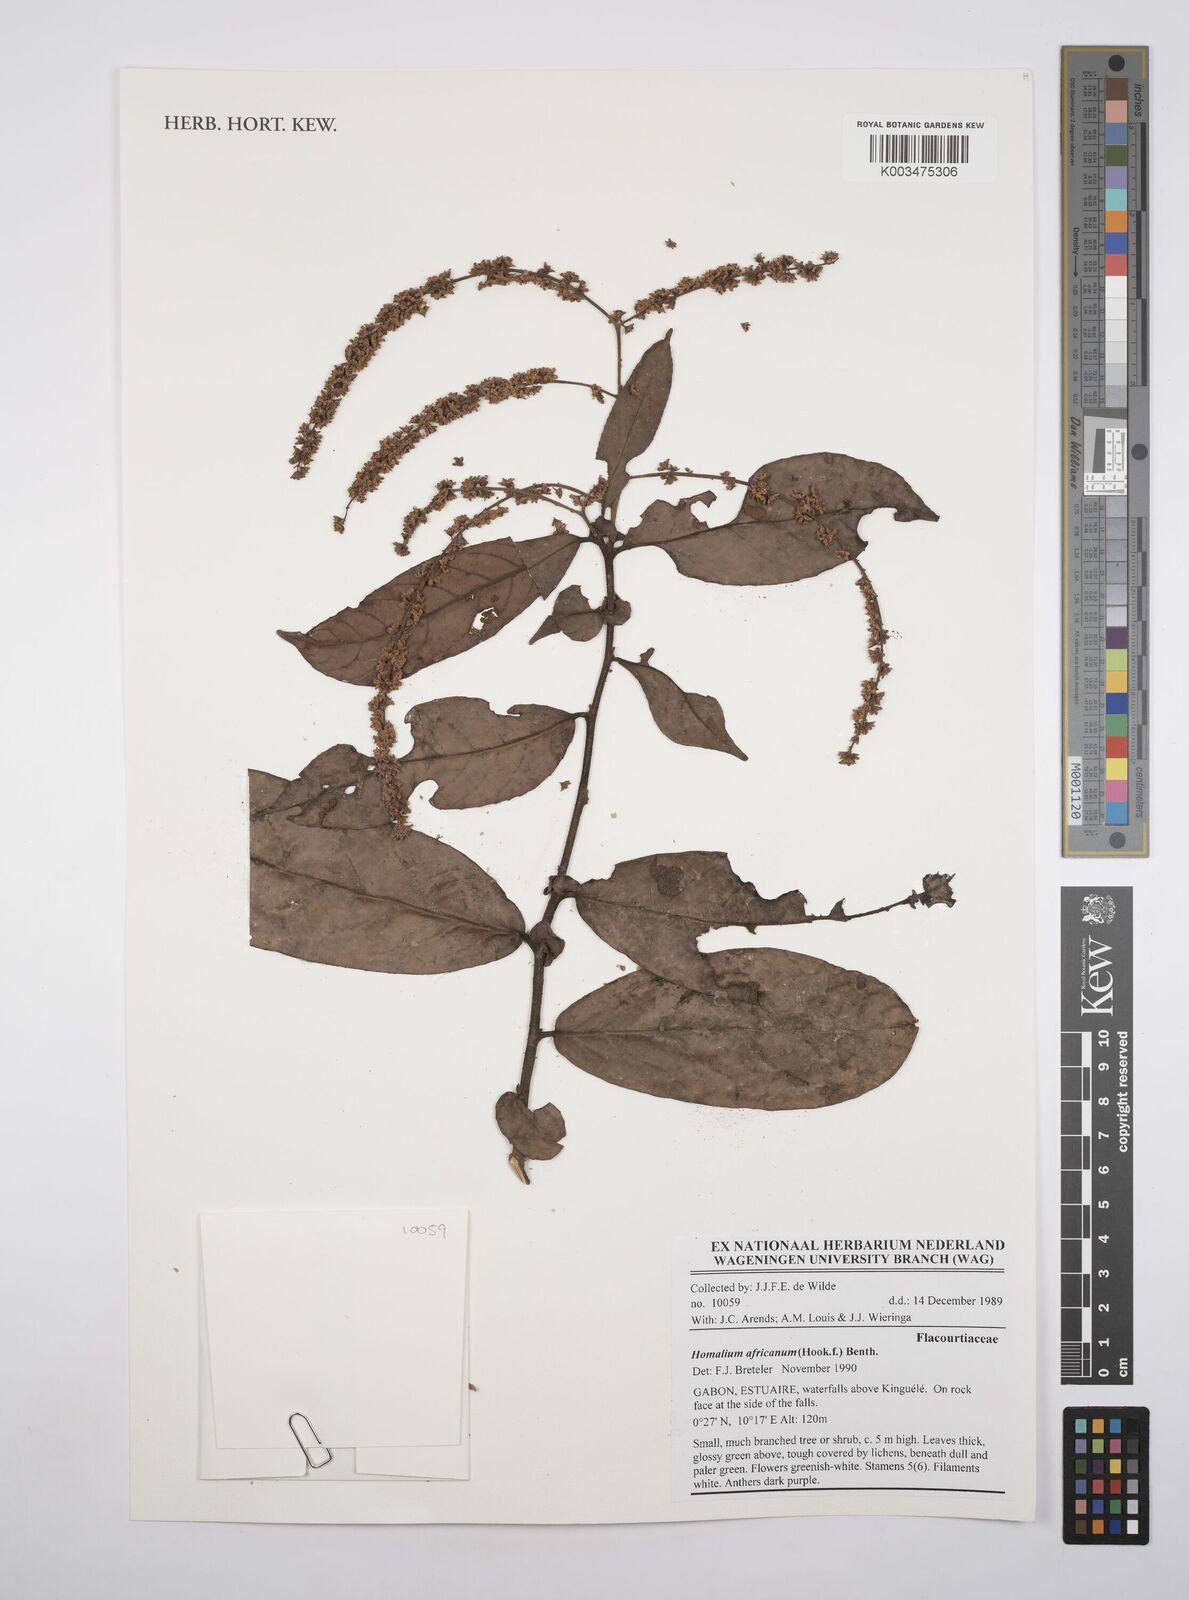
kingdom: Plantae
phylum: Tracheophyta
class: Magnoliopsida
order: Malpighiales
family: Salicaceae
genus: Homalium
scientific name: Homalium africanum
